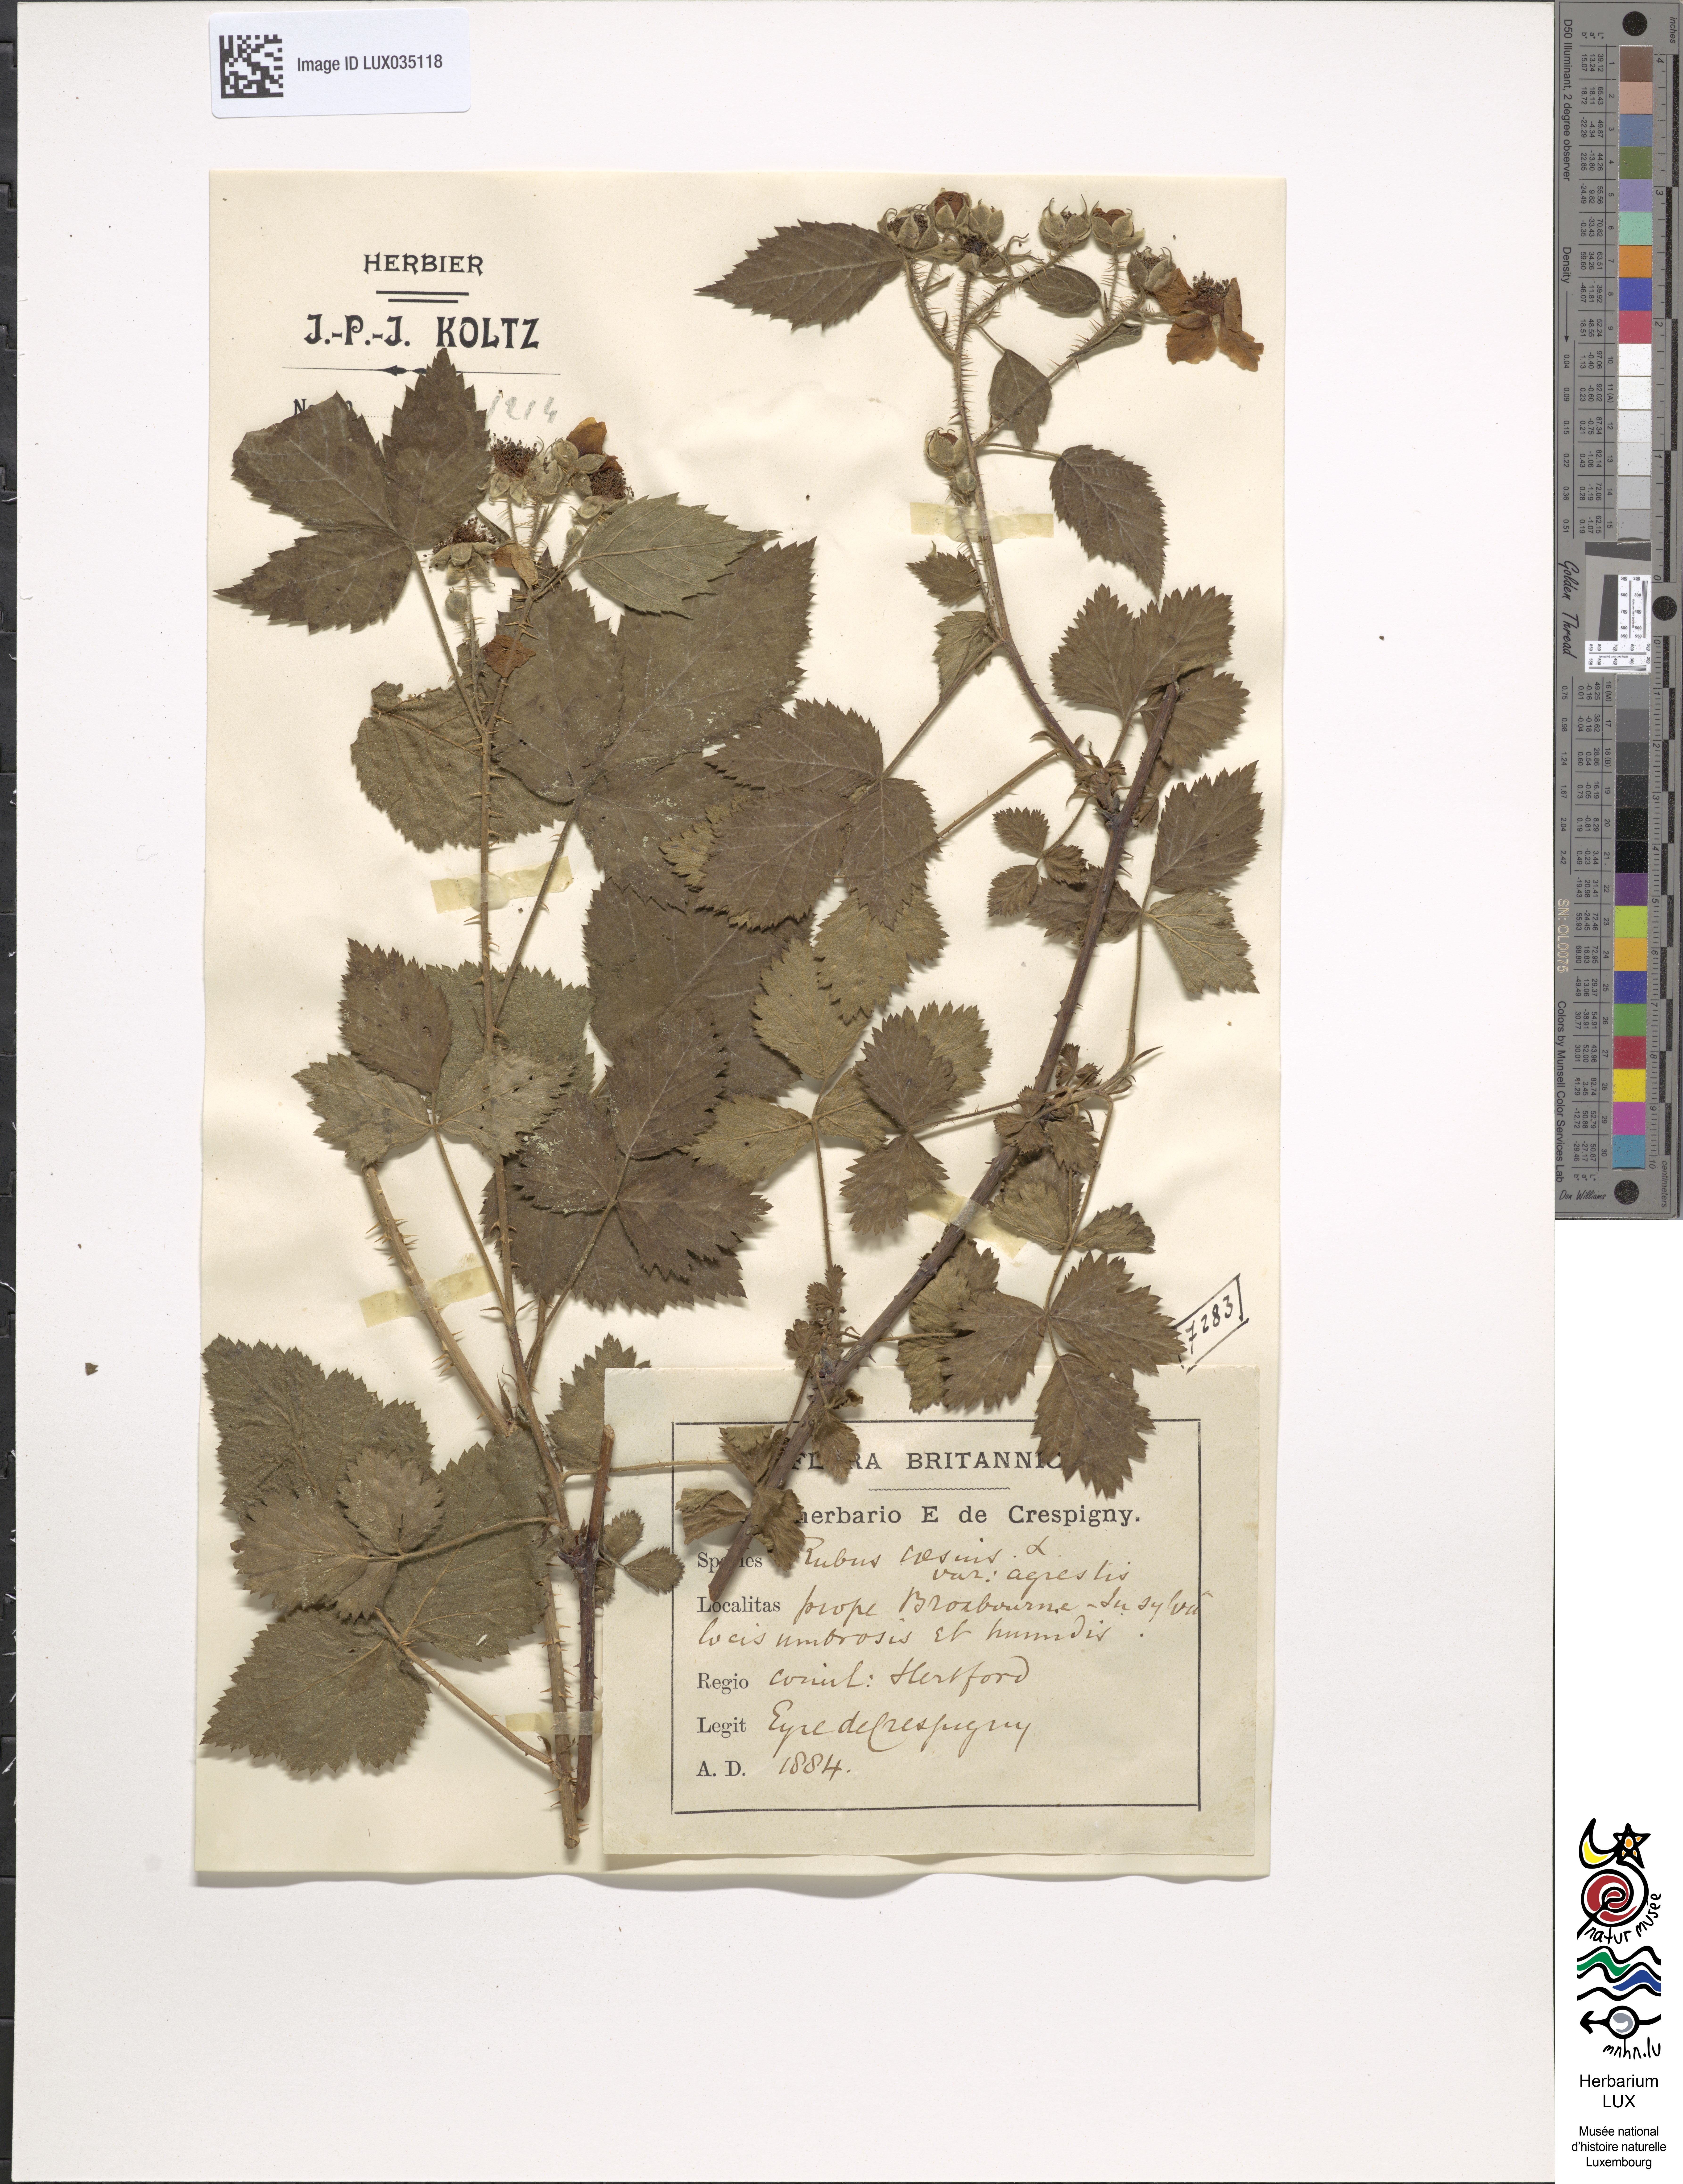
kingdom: Plantae
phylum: Tracheophyta
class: Magnoliopsida
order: Rosales
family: Rosaceae
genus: Rubus
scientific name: Rubus caesius
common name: Dewberry
